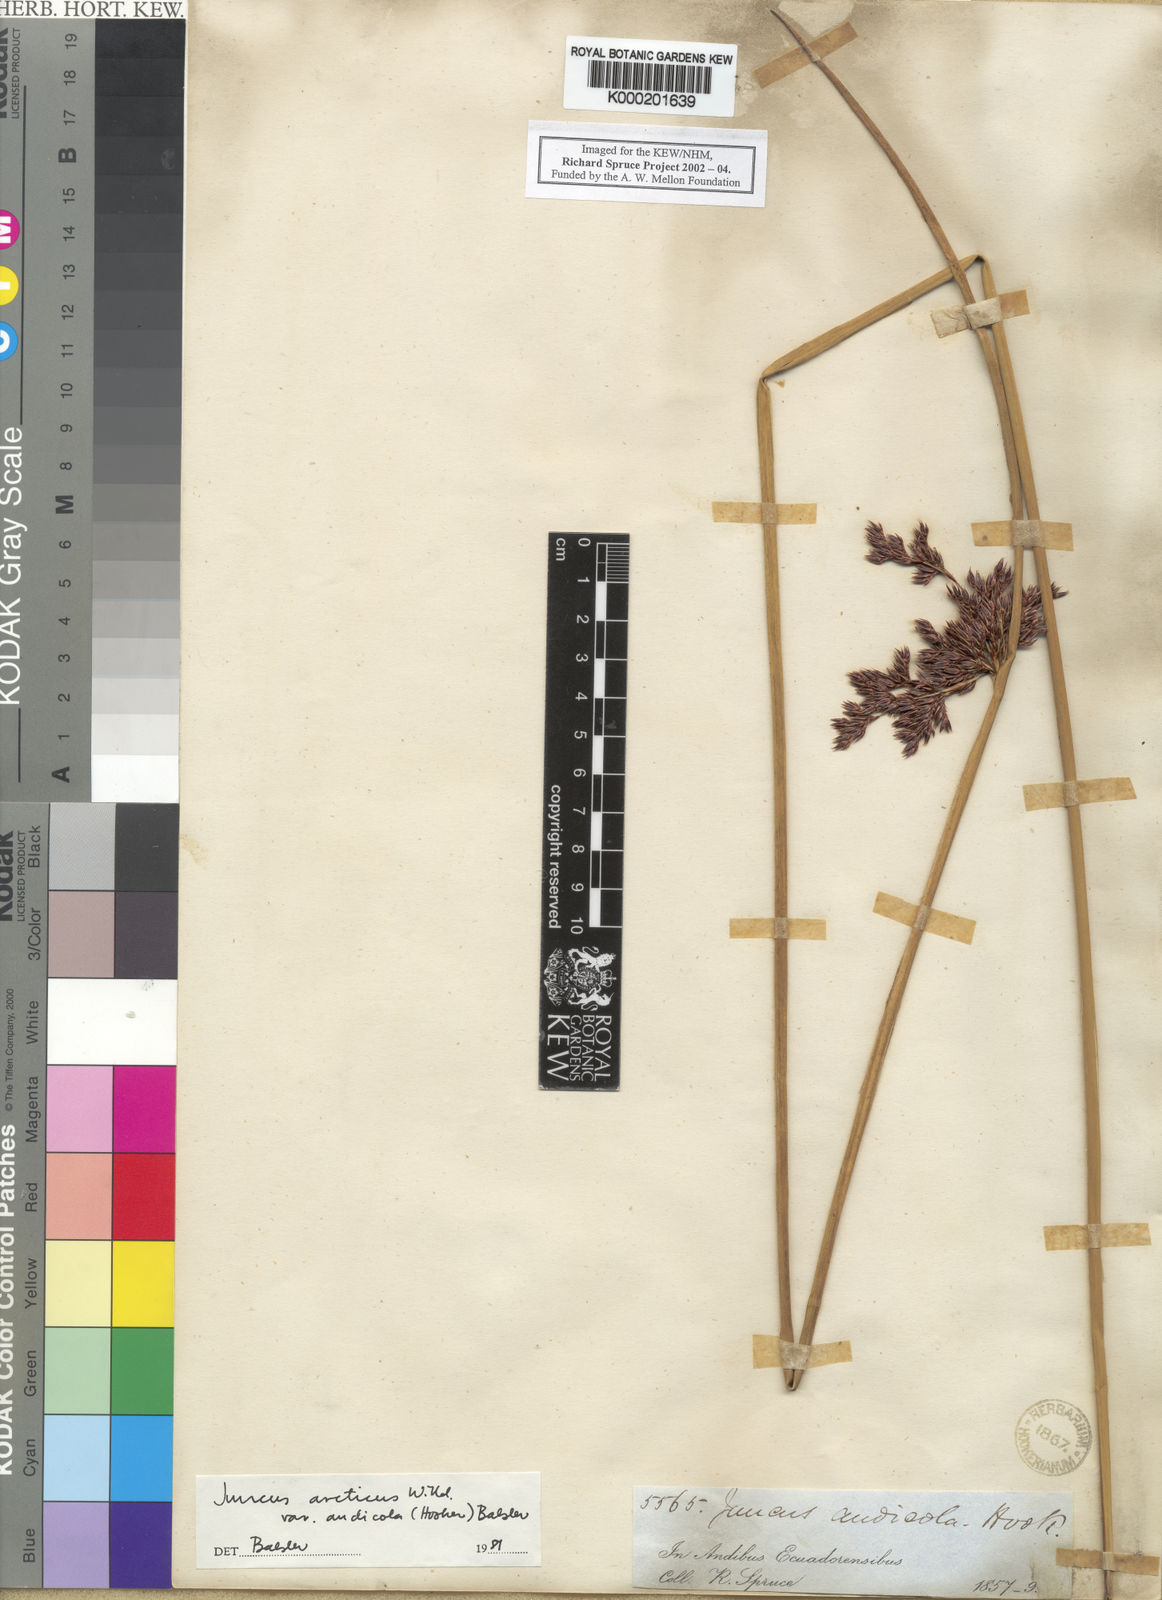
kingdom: Plantae
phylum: Tracheophyta
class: Liliopsida
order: Poales
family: Juncaceae
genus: Juncus
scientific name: Juncus balticus
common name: Baltic rush
